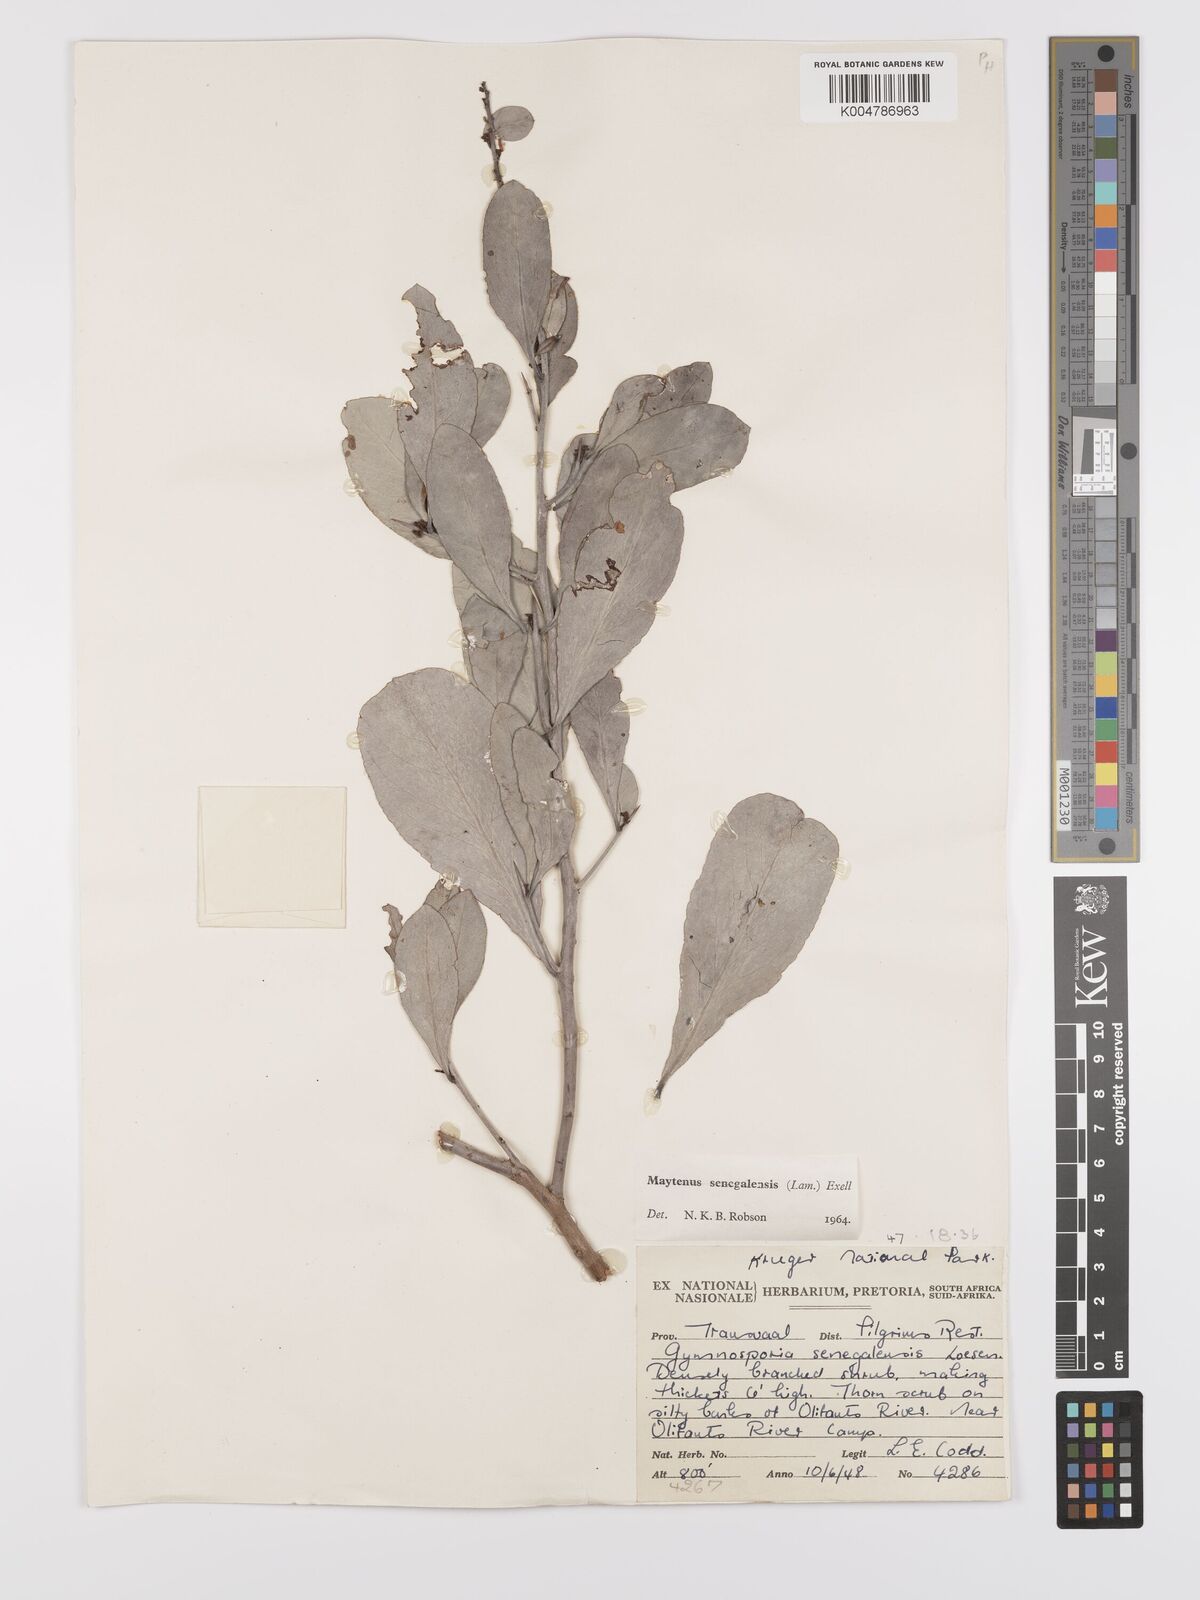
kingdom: Plantae
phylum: Tracheophyta
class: Magnoliopsida
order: Celastrales
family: Celastraceae
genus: Gymnosporia
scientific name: Gymnosporia senegalensis
